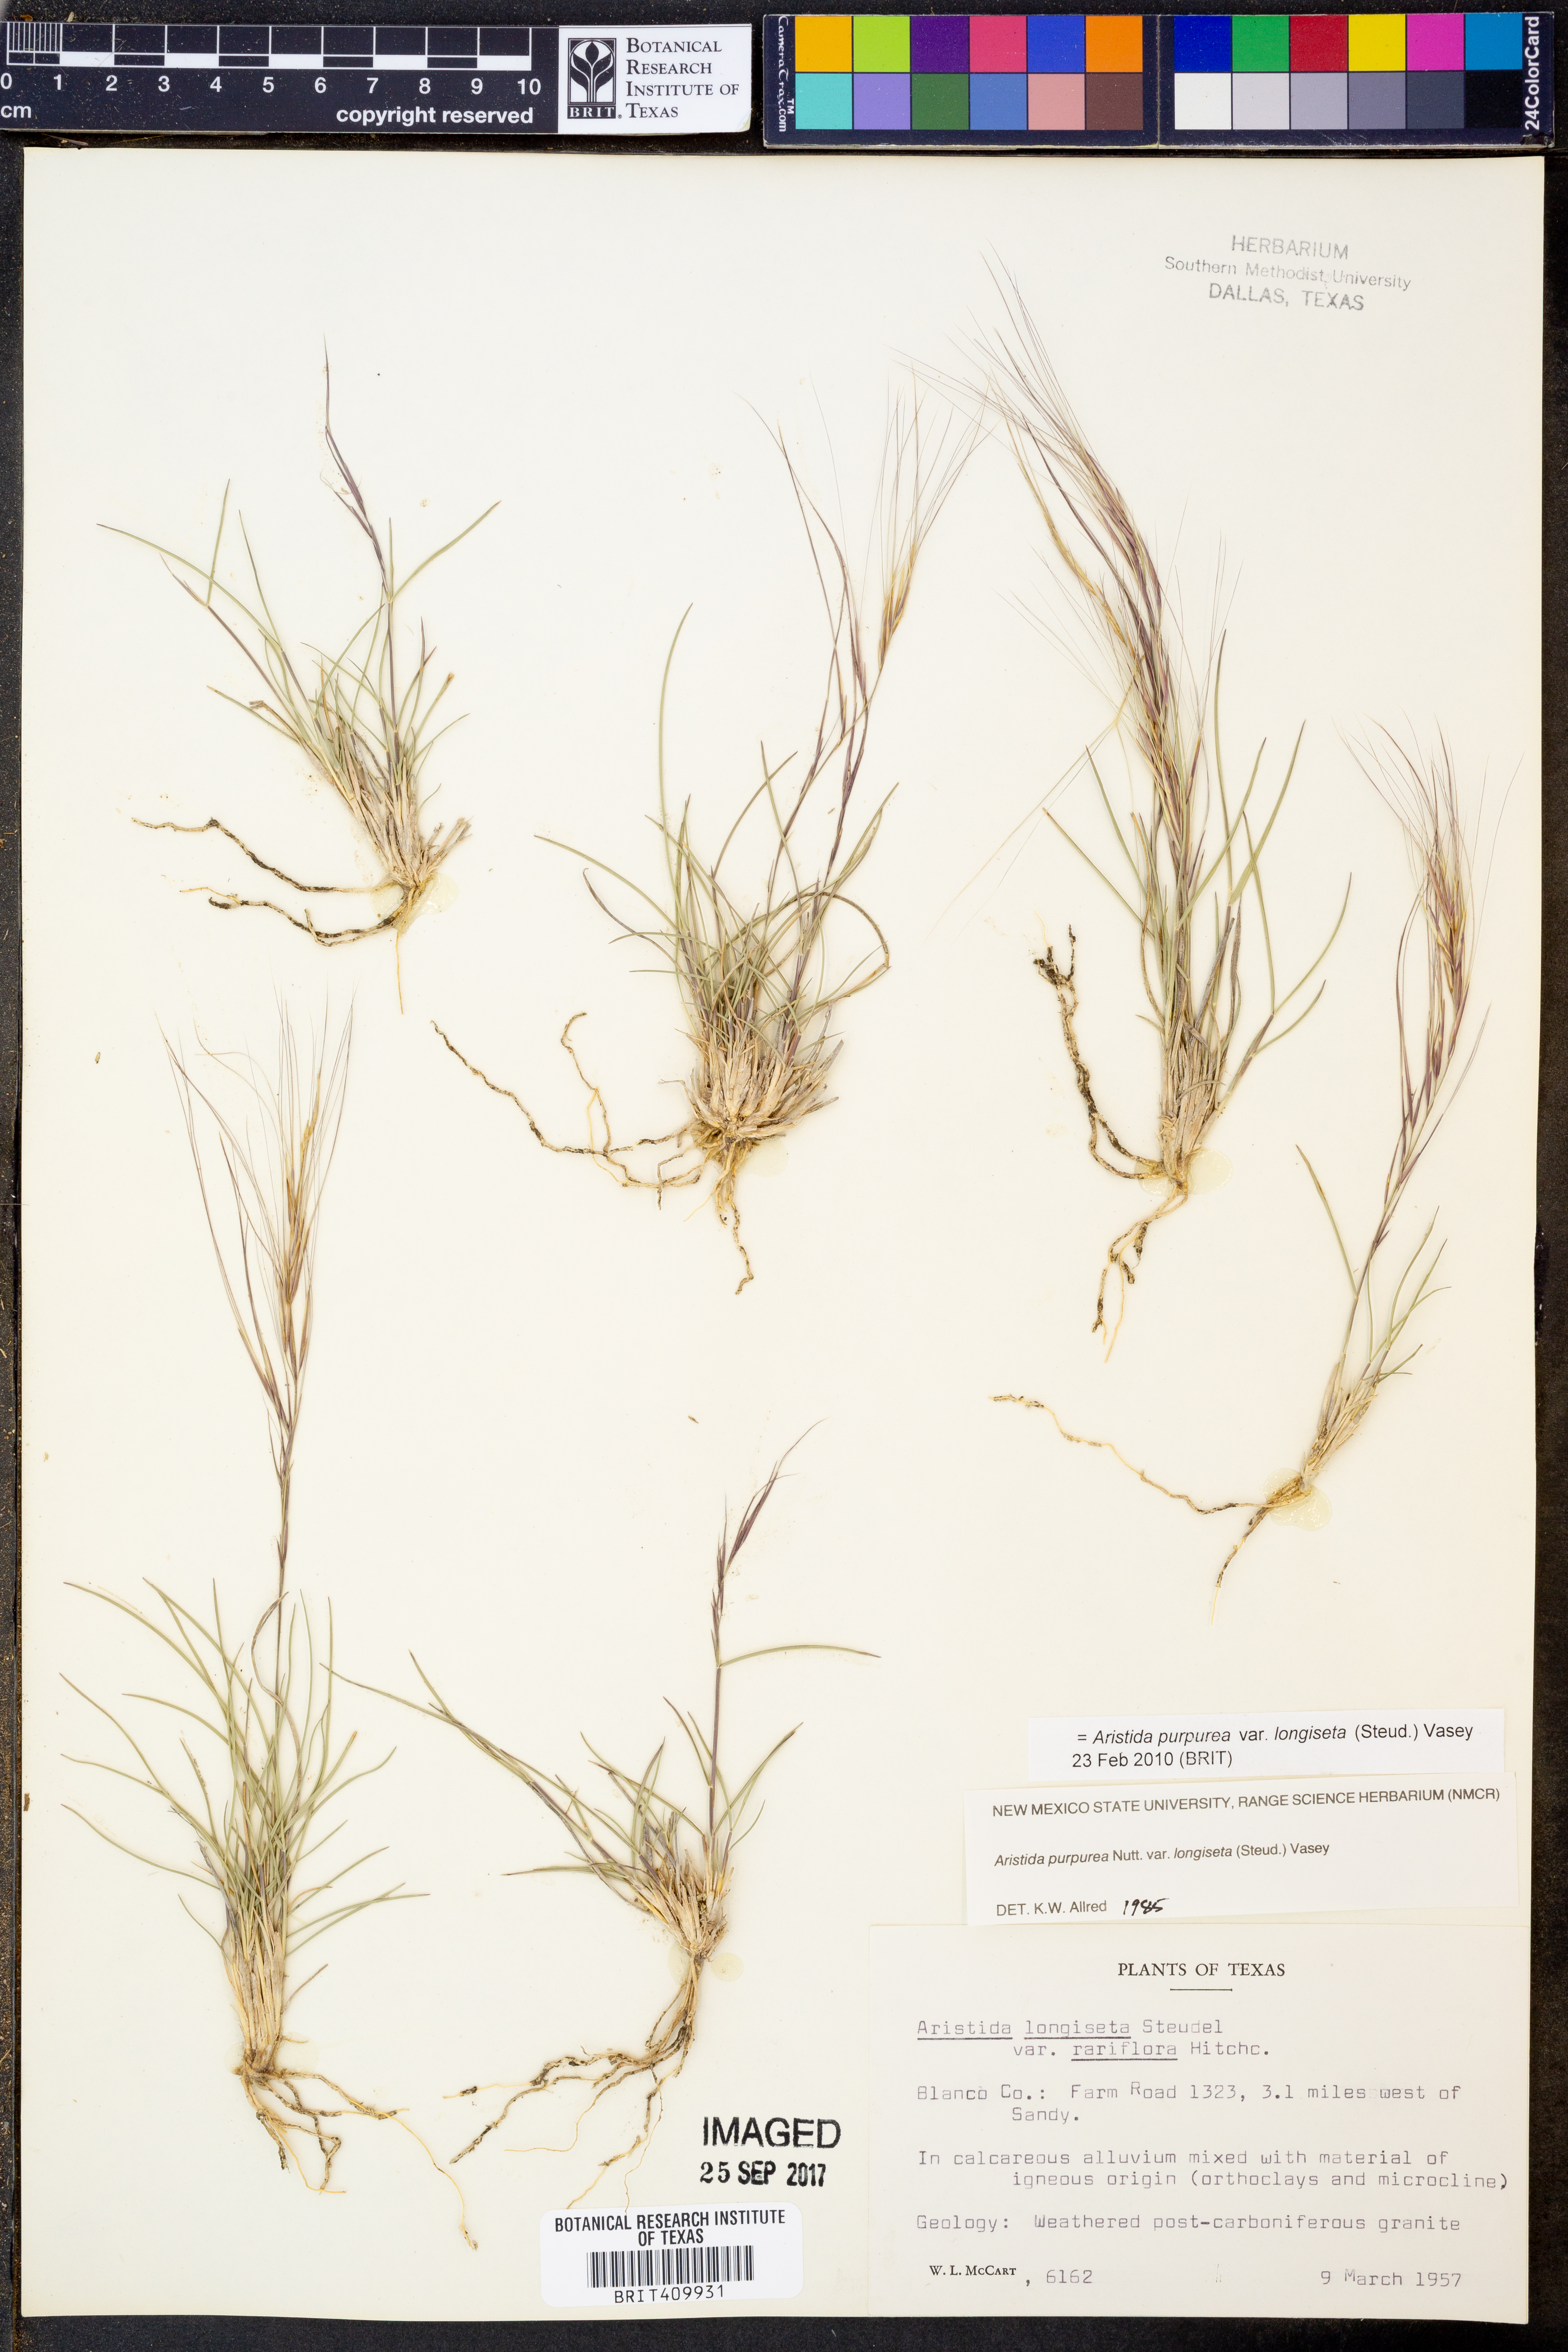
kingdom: Plantae
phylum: Tracheophyta
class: Liliopsida
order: Poales
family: Poaceae
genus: Aristida
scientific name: Aristida longiseta
